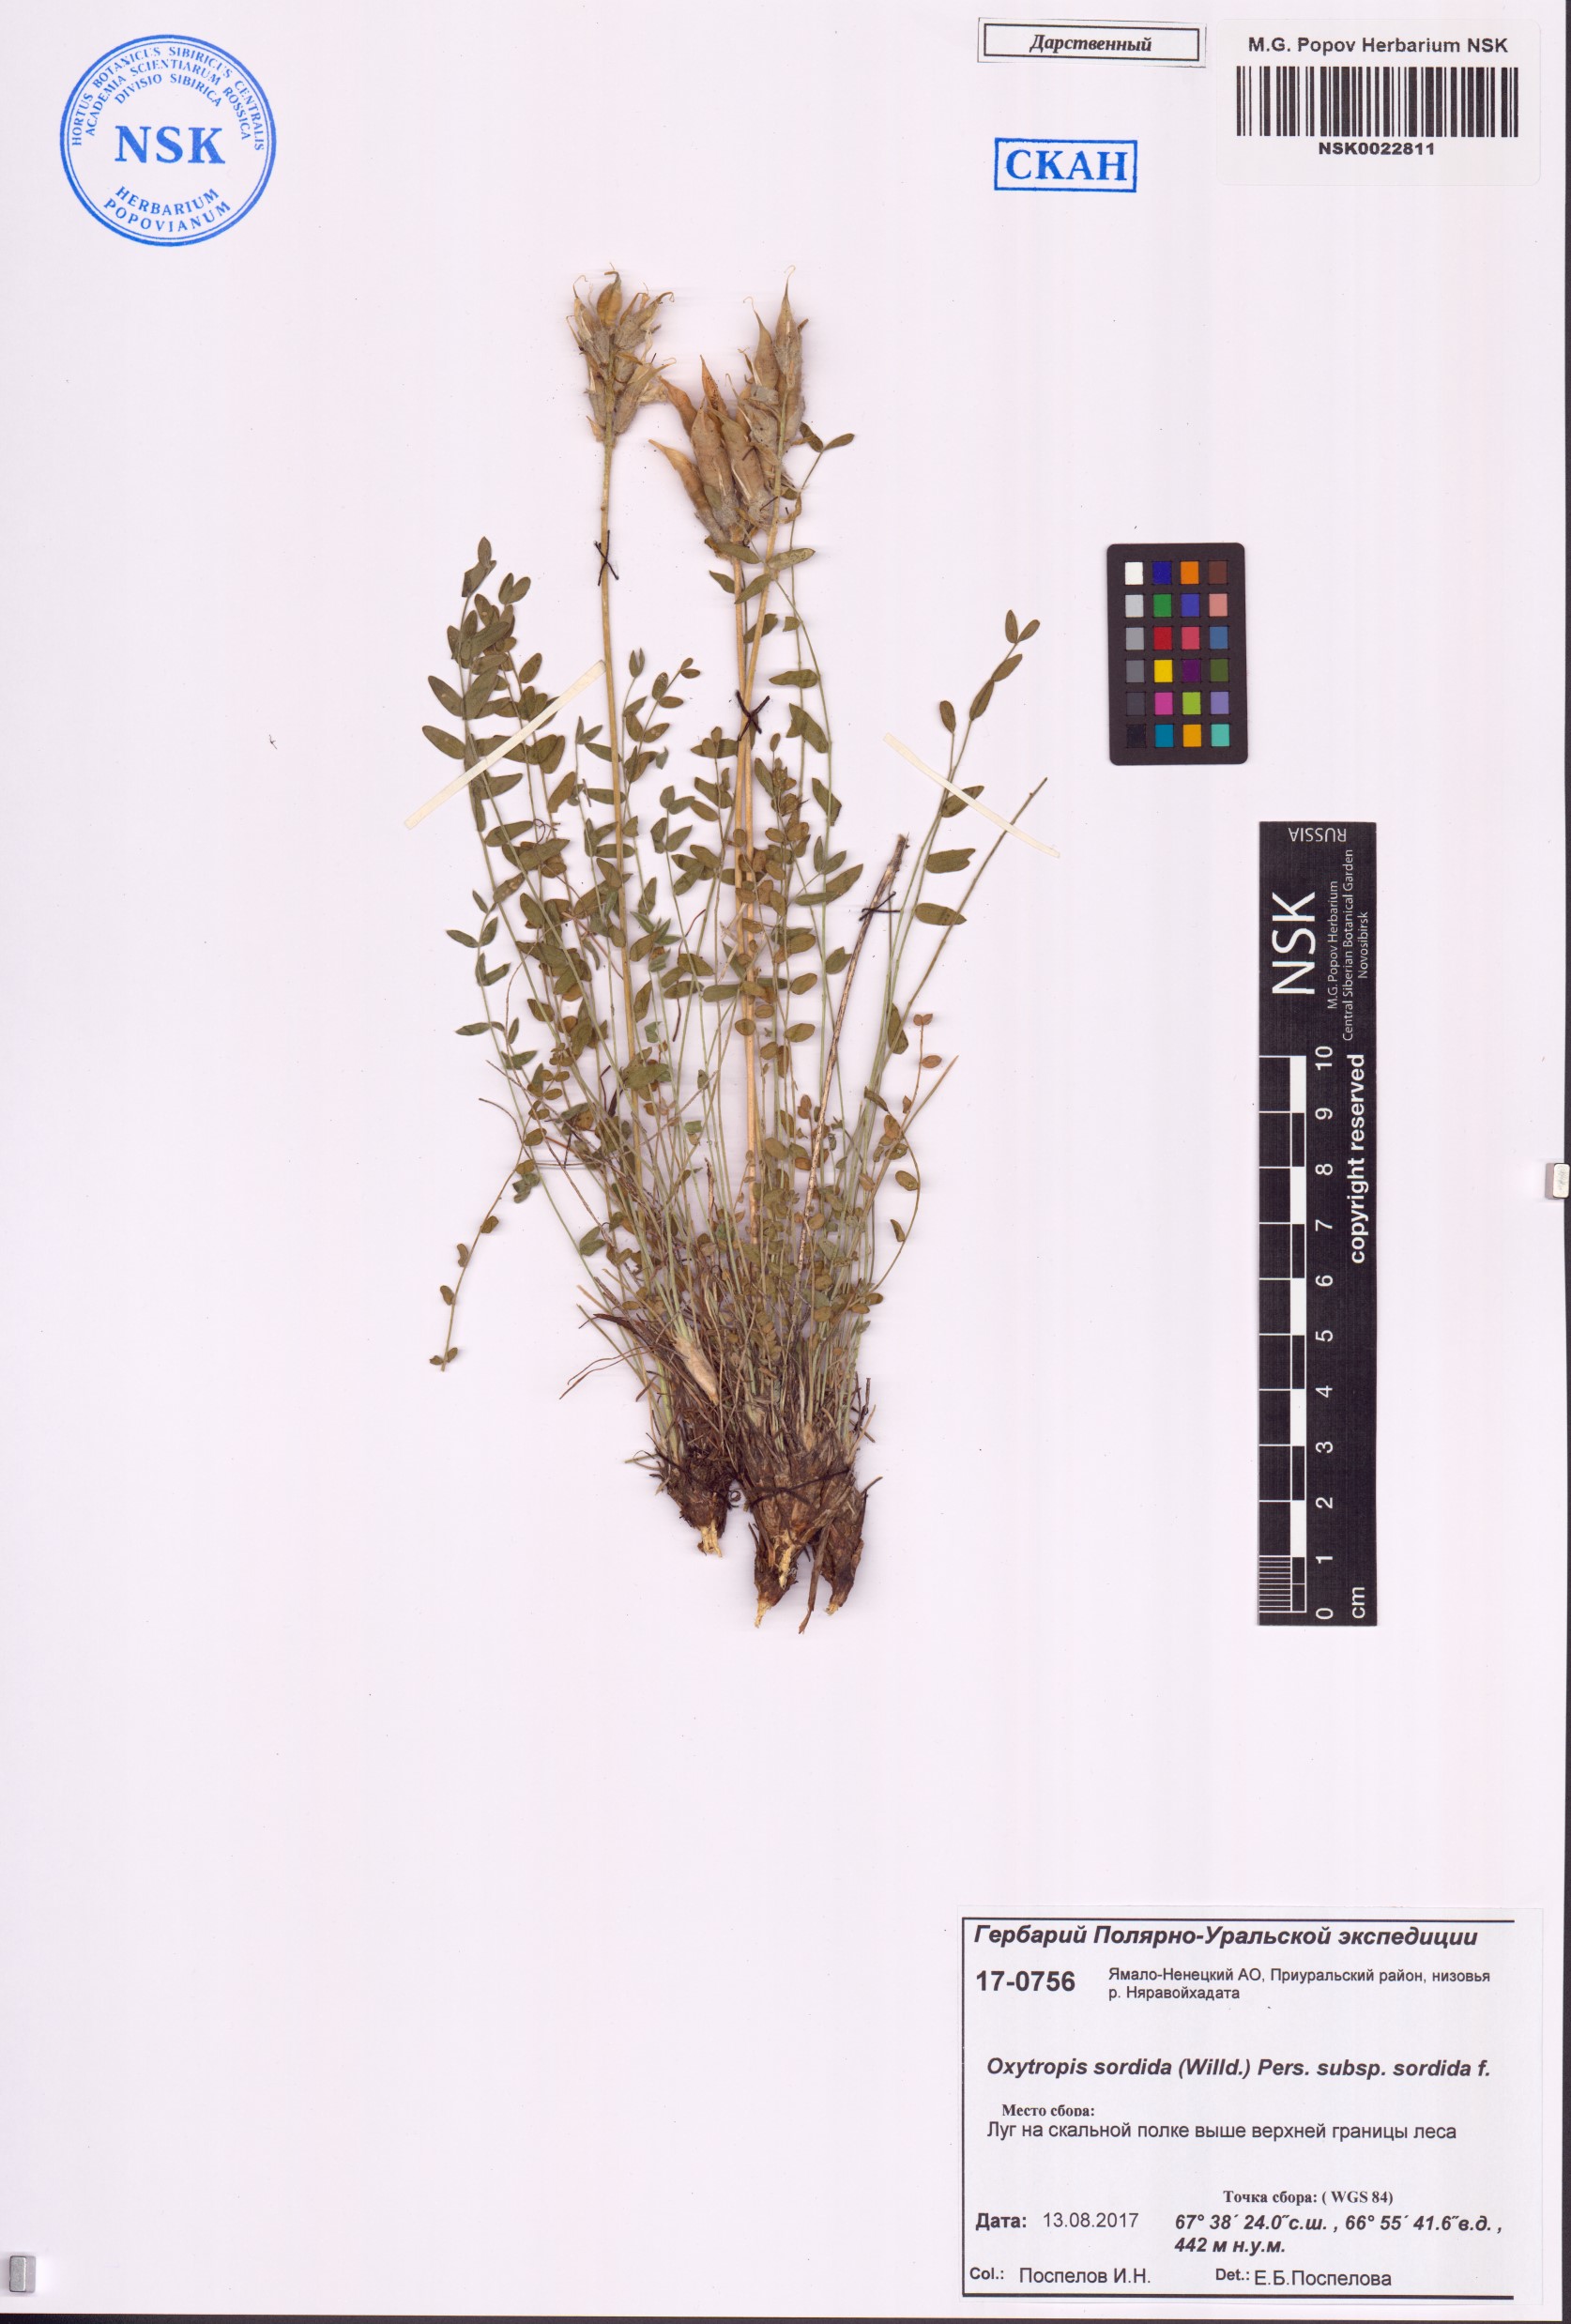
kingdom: Plantae
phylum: Tracheophyta
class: Magnoliopsida
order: Fabales
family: Fabaceae
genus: Oxytropis
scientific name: Oxytropis sordida
